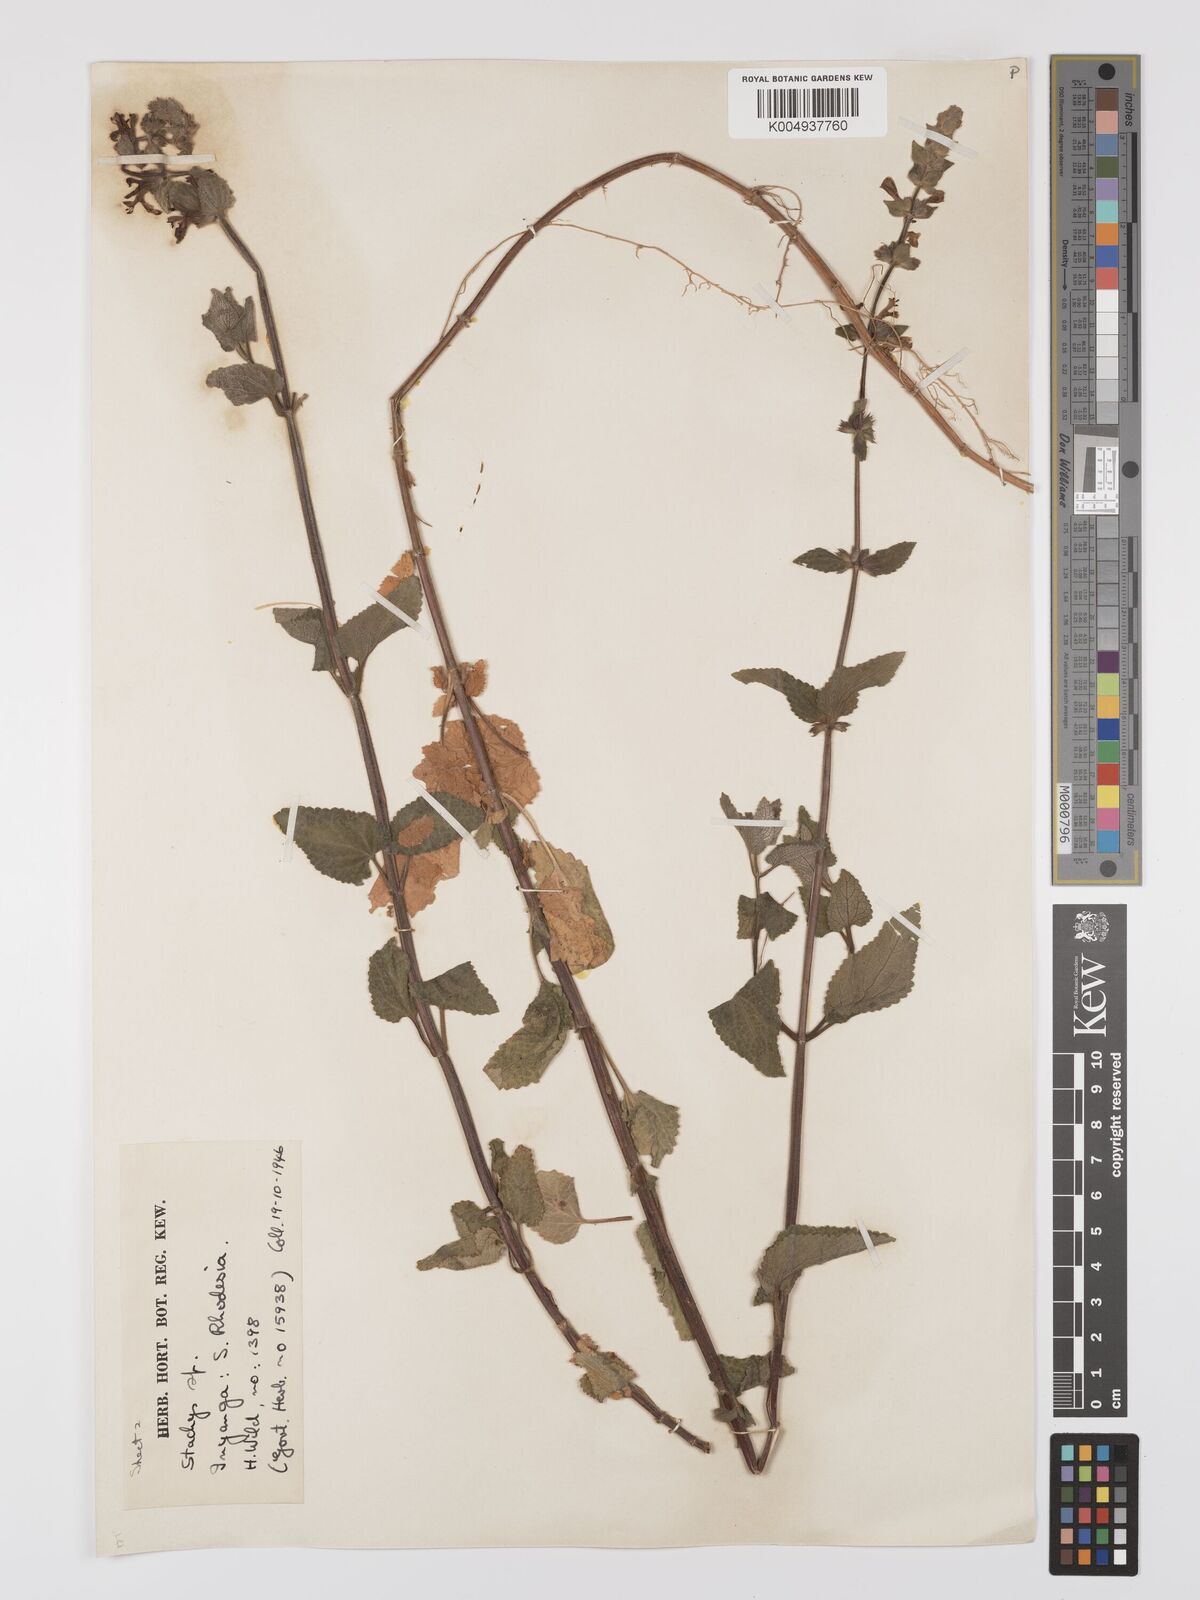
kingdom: Plantae
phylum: Tracheophyta
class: Magnoliopsida
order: Lamiales
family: Lamiaceae
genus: Stachys
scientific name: Stachys aethiopica
